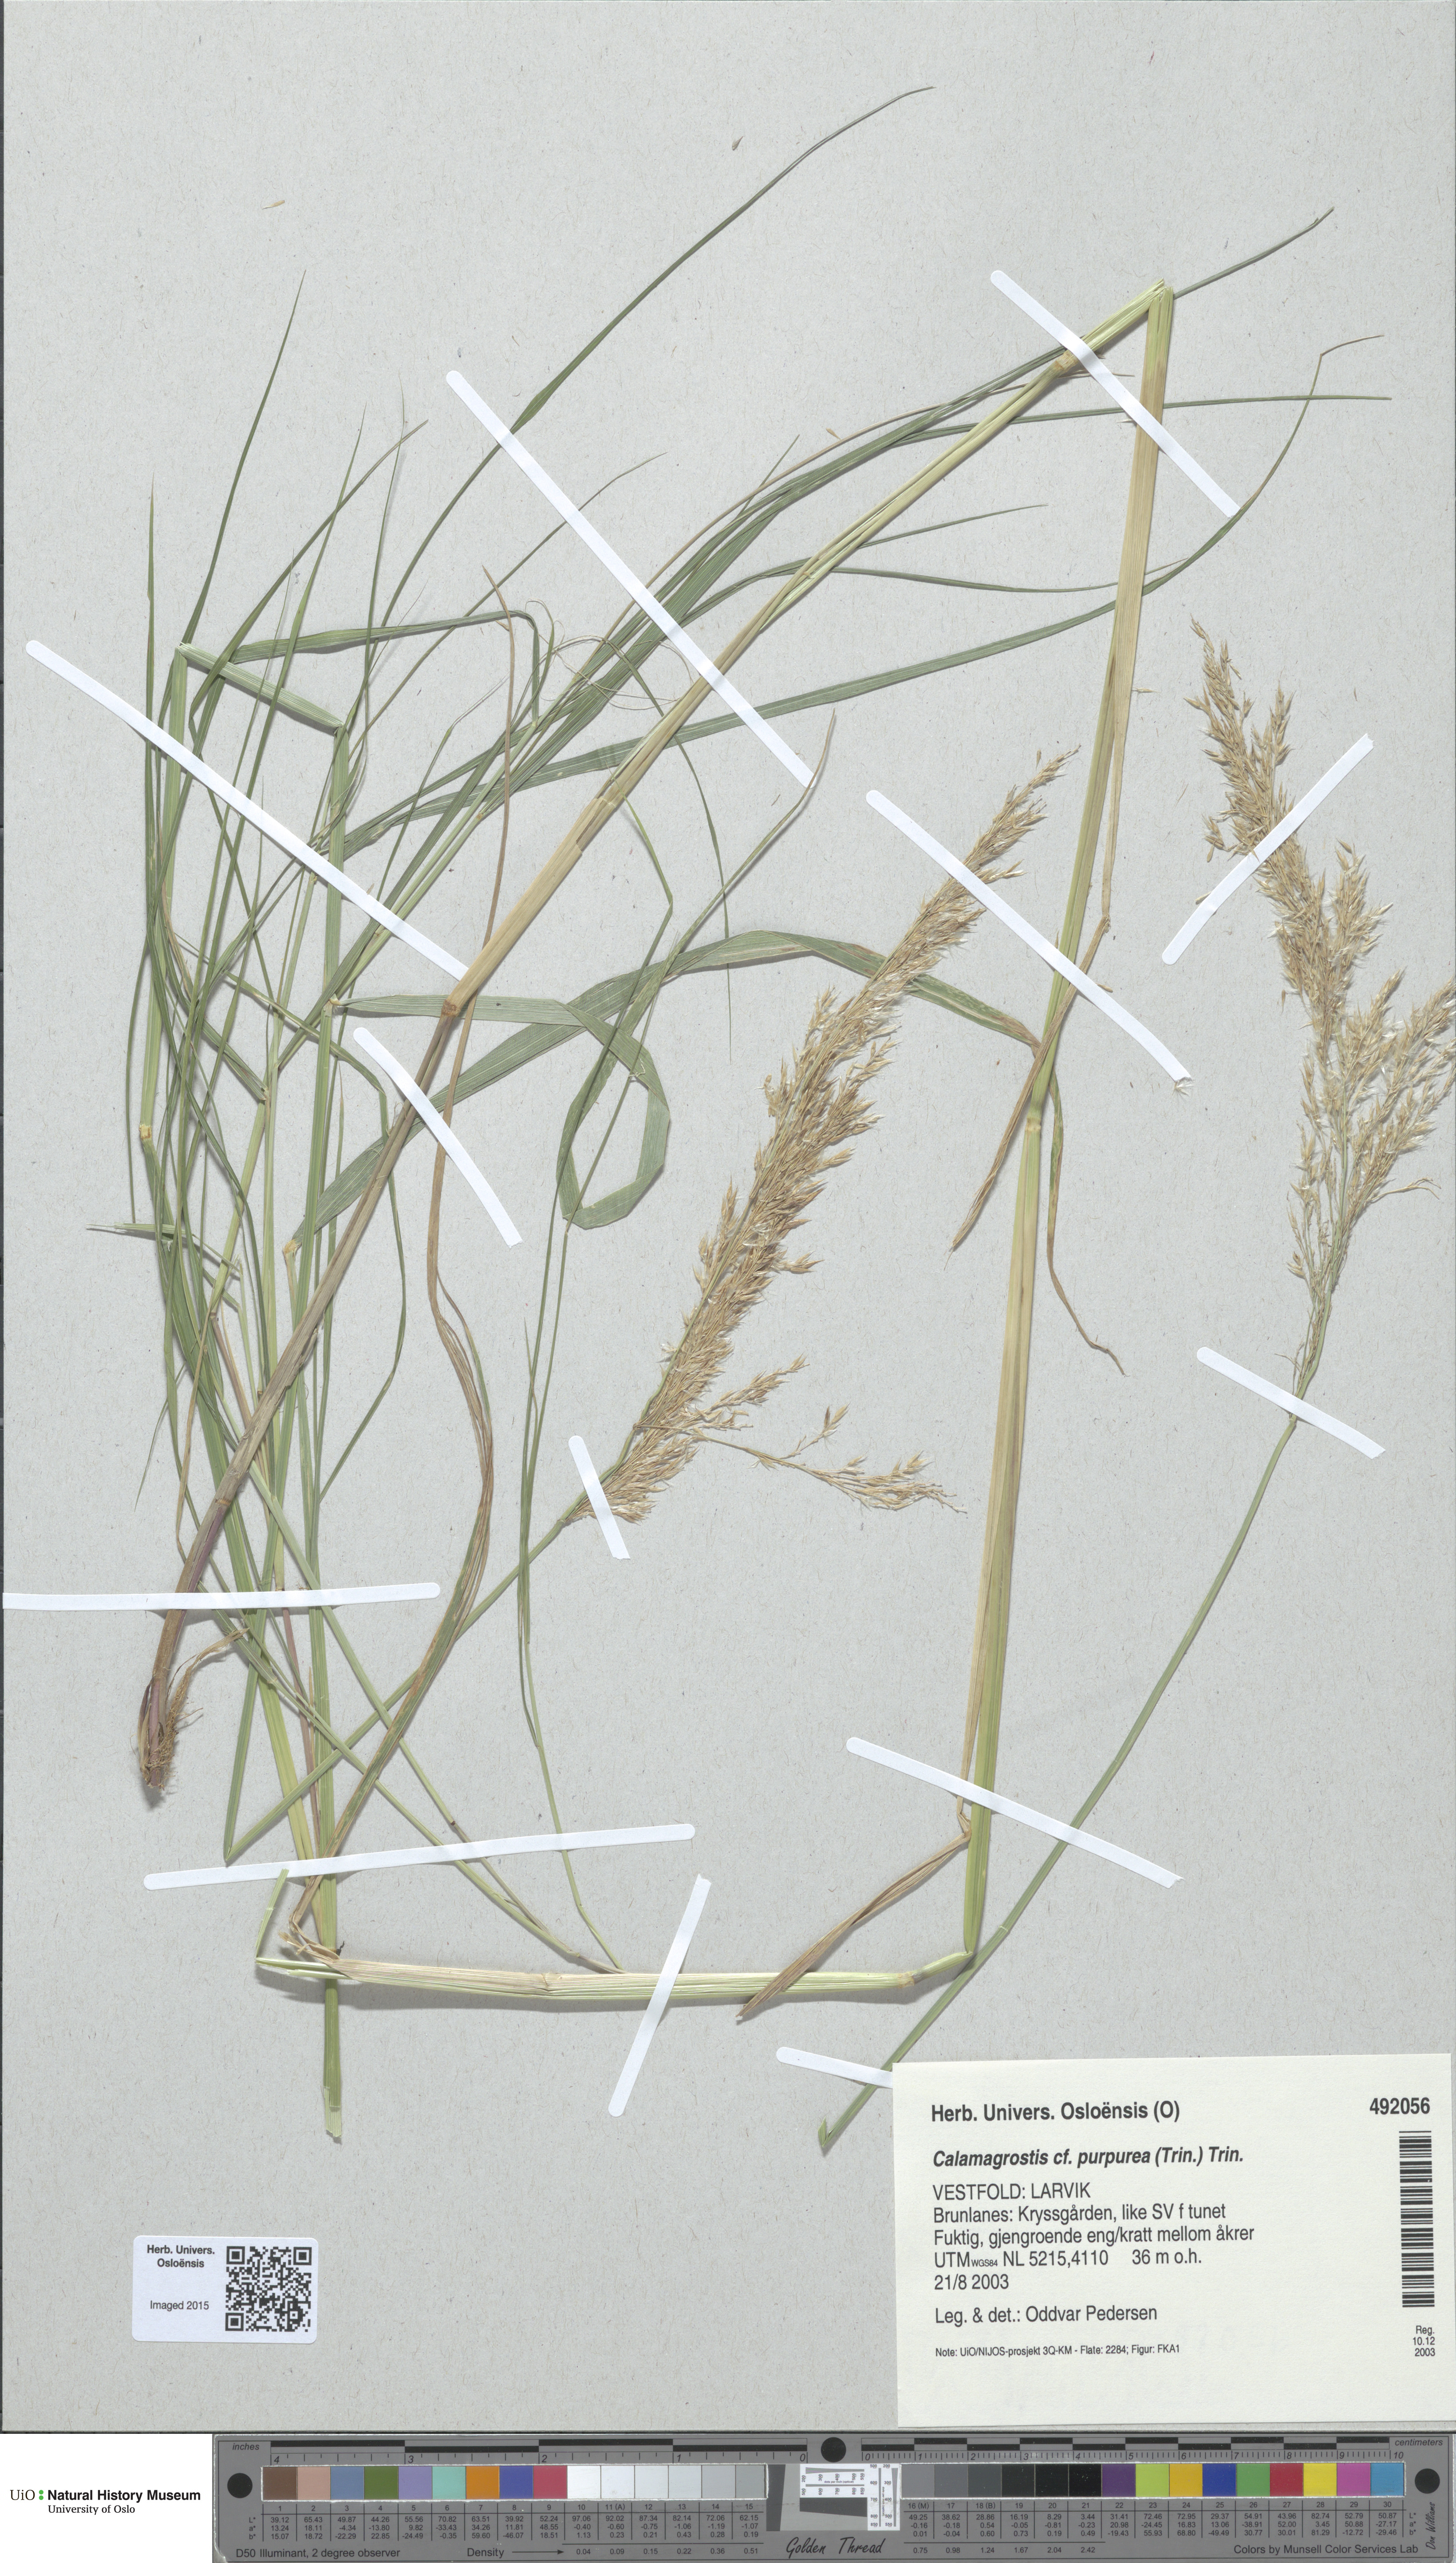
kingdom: Plantae
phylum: Tracheophyta
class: Liliopsida
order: Poales
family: Poaceae
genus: Calamagrostis
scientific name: Calamagrostis purpurea
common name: Scandinavian small-reed
